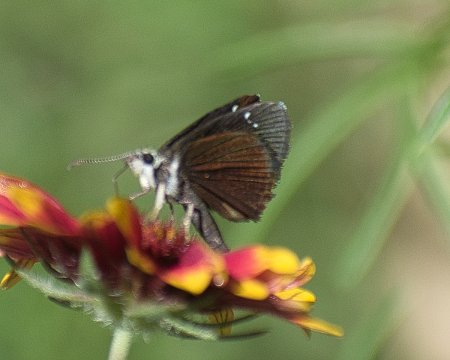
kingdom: Animalia
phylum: Arthropoda
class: Insecta
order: Lepidoptera
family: Hesperiidae
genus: Pholisora
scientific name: Pholisora catullus
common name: Common Sootywing
